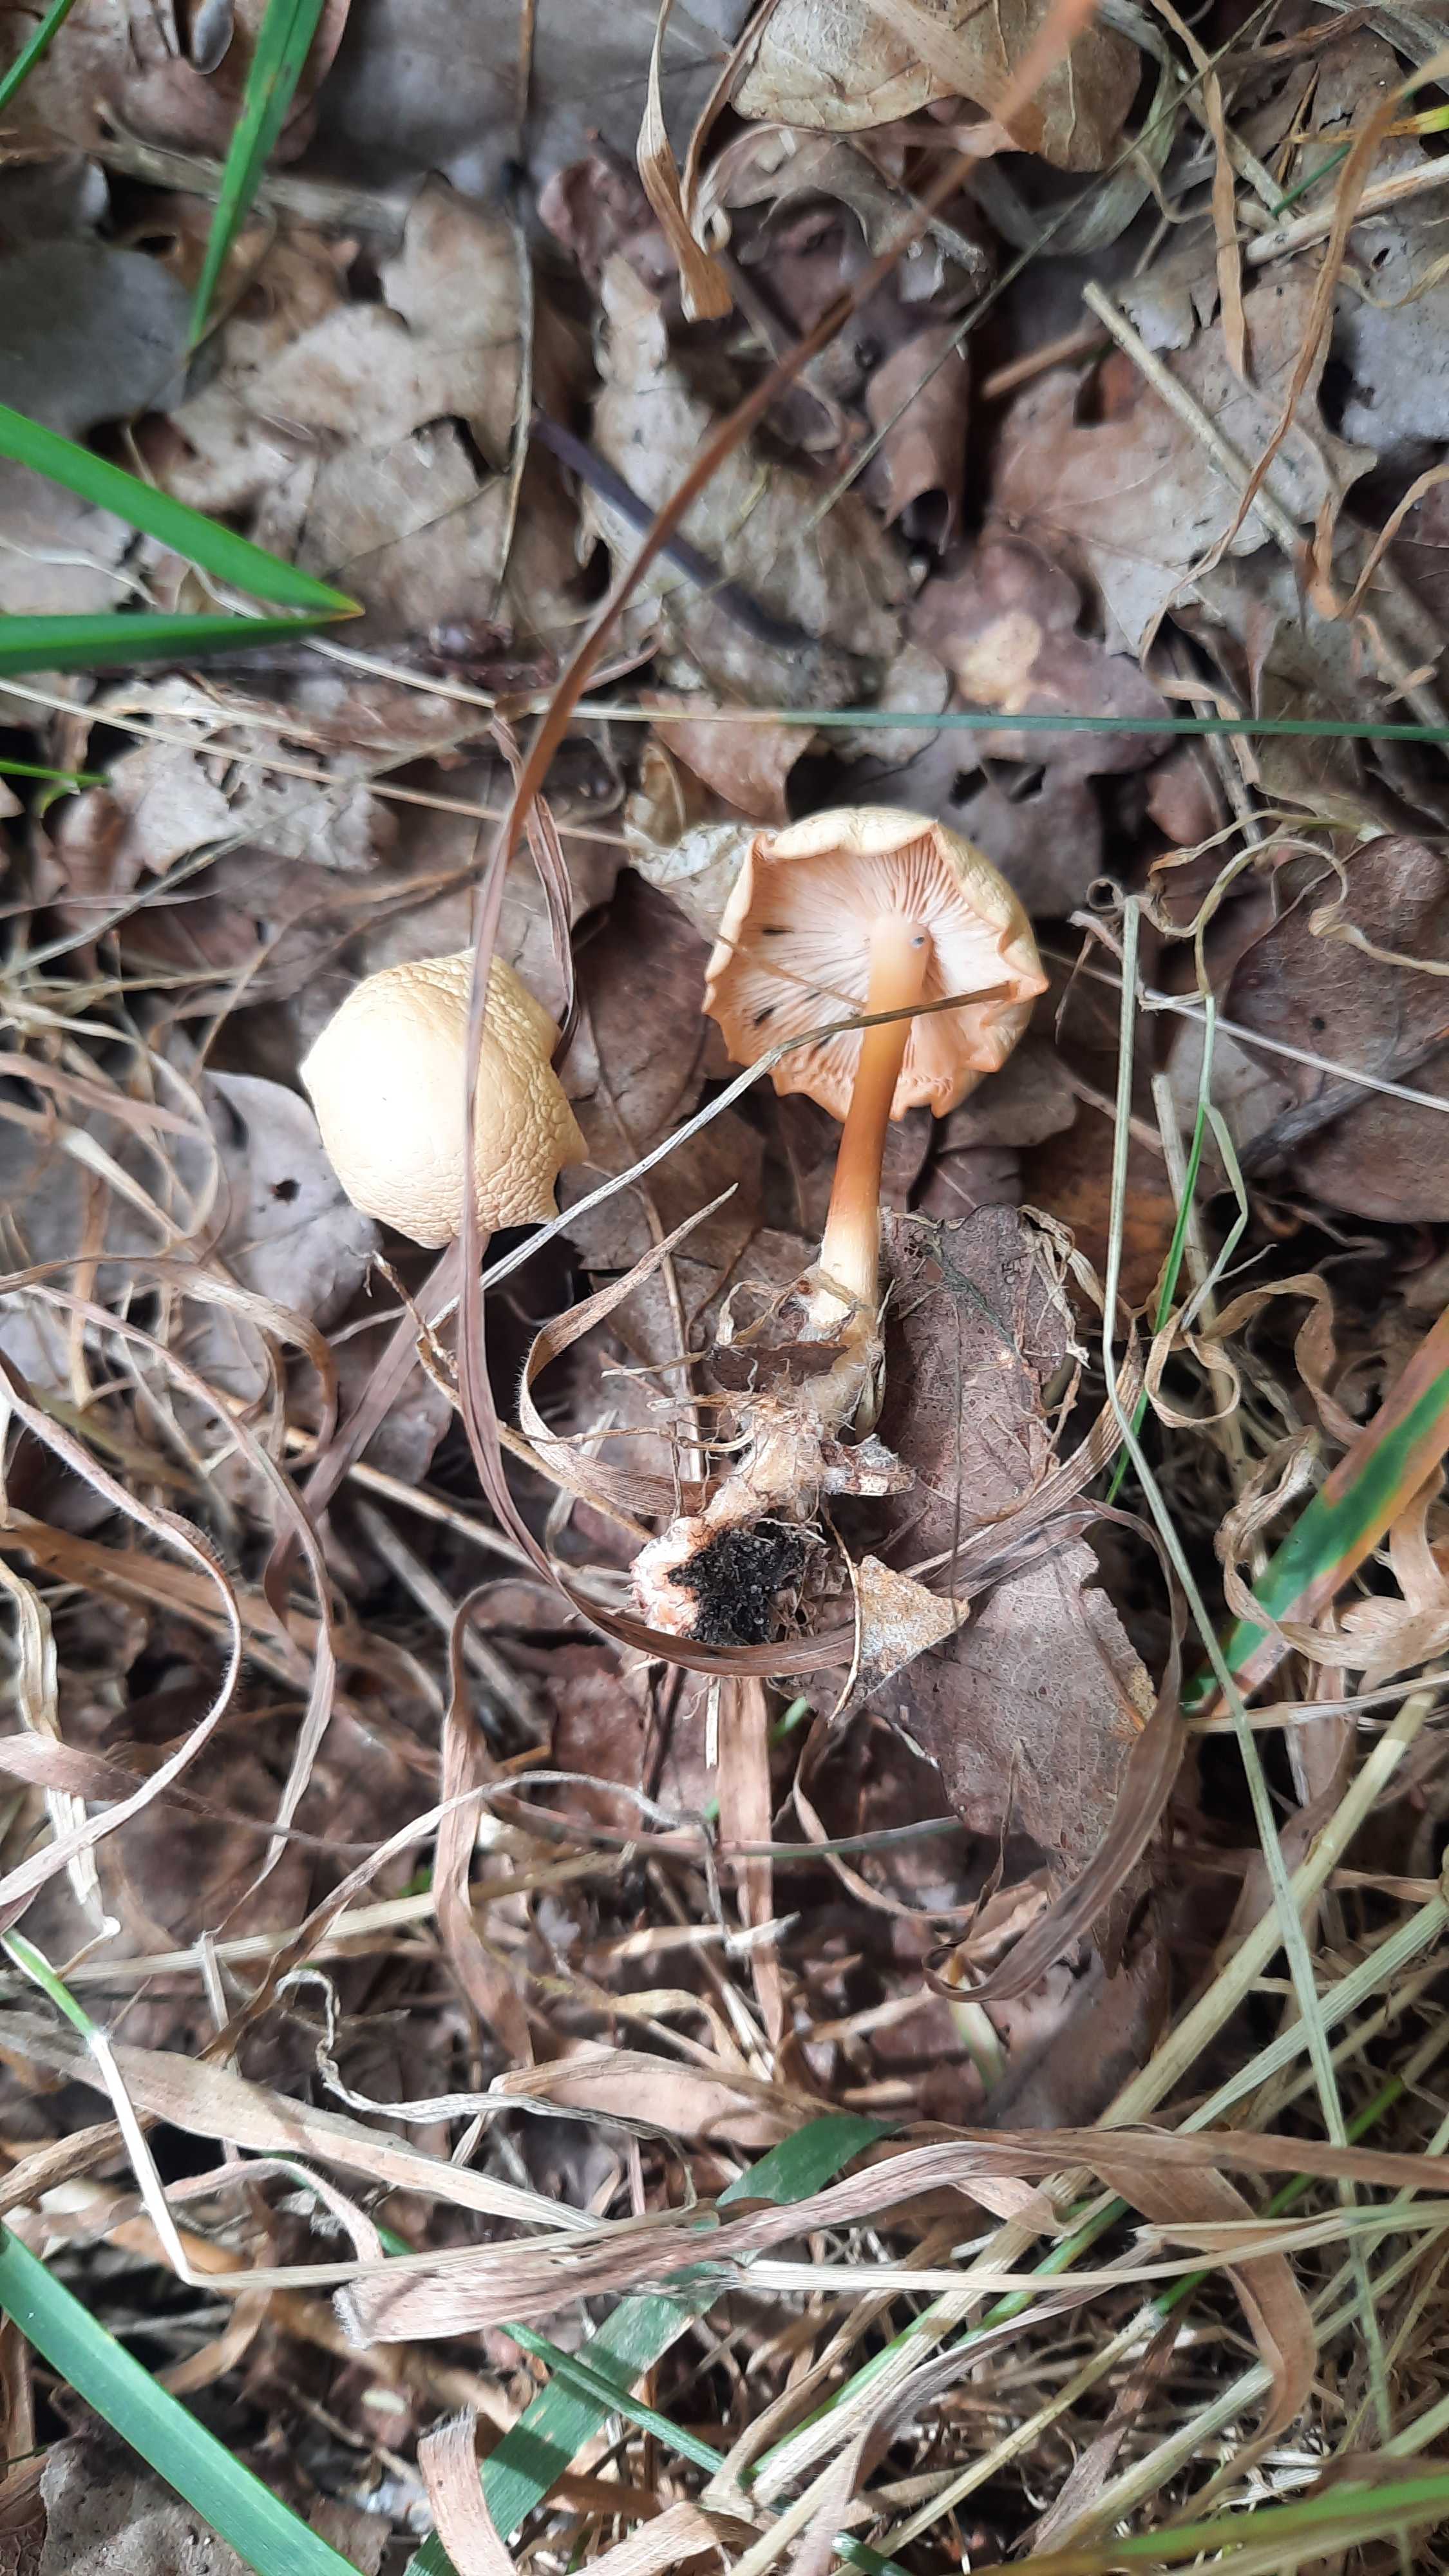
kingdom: Fungi
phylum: Basidiomycota
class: Agaricomycetes
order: Agaricales
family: Omphalotaceae
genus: Gymnopus
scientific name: Gymnopus dryophilus
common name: løv-fladhat
